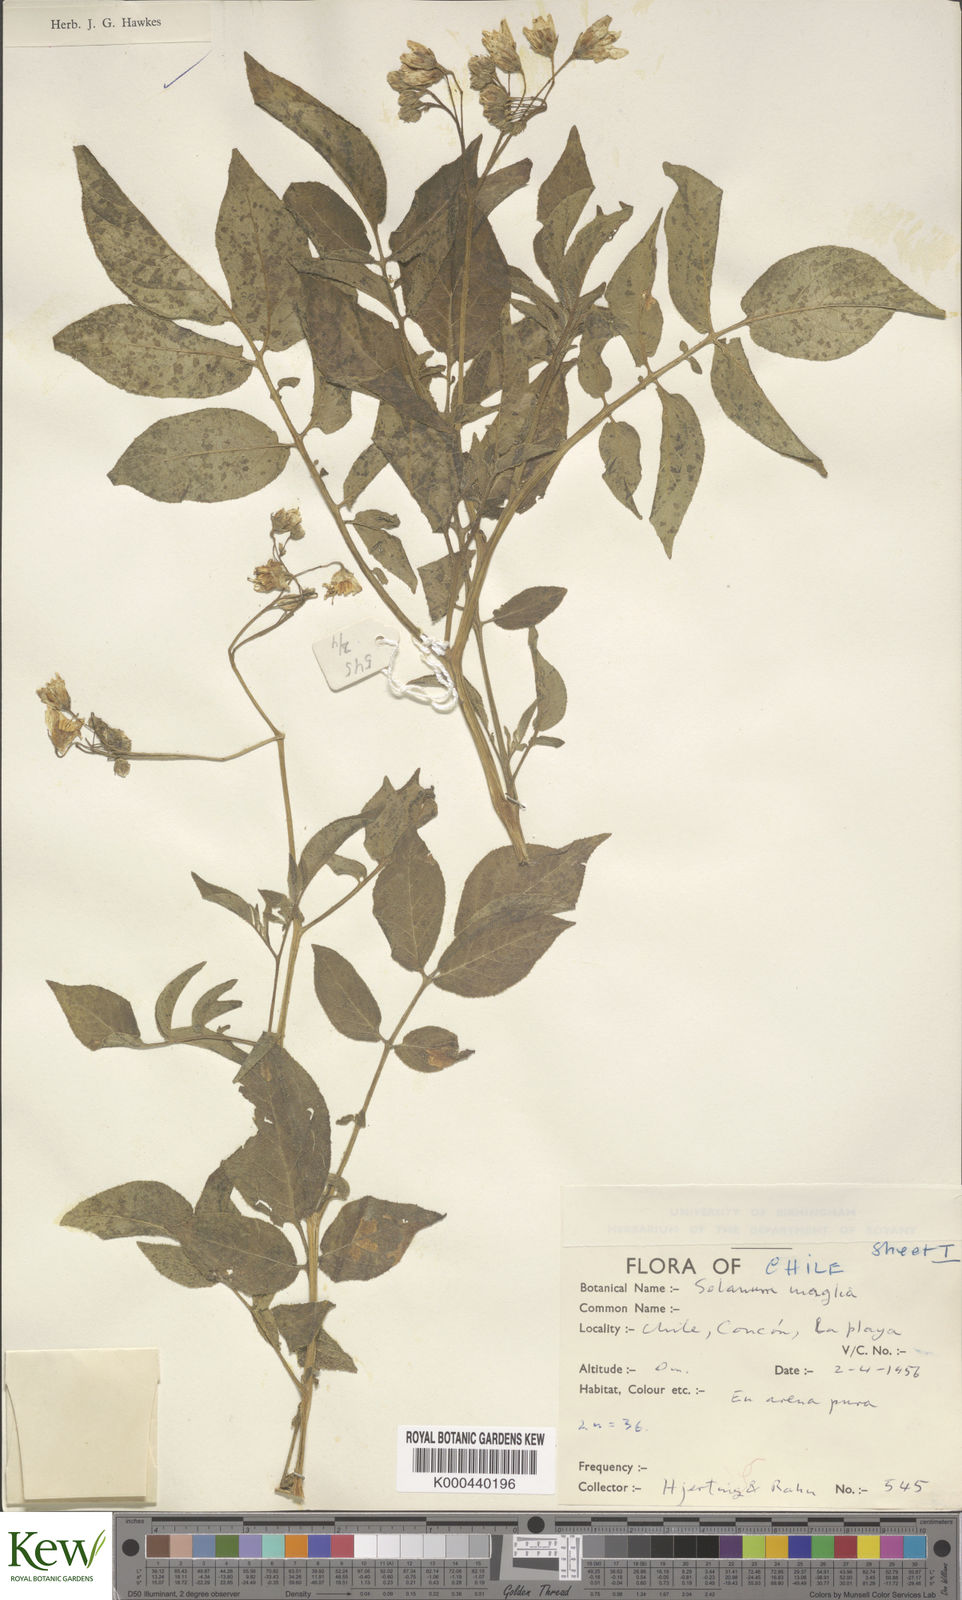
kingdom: Plantae
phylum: Tracheophyta
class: Magnoliopsida
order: Solanales
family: Solanaceae
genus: Solanum
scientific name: Solanum maglia
